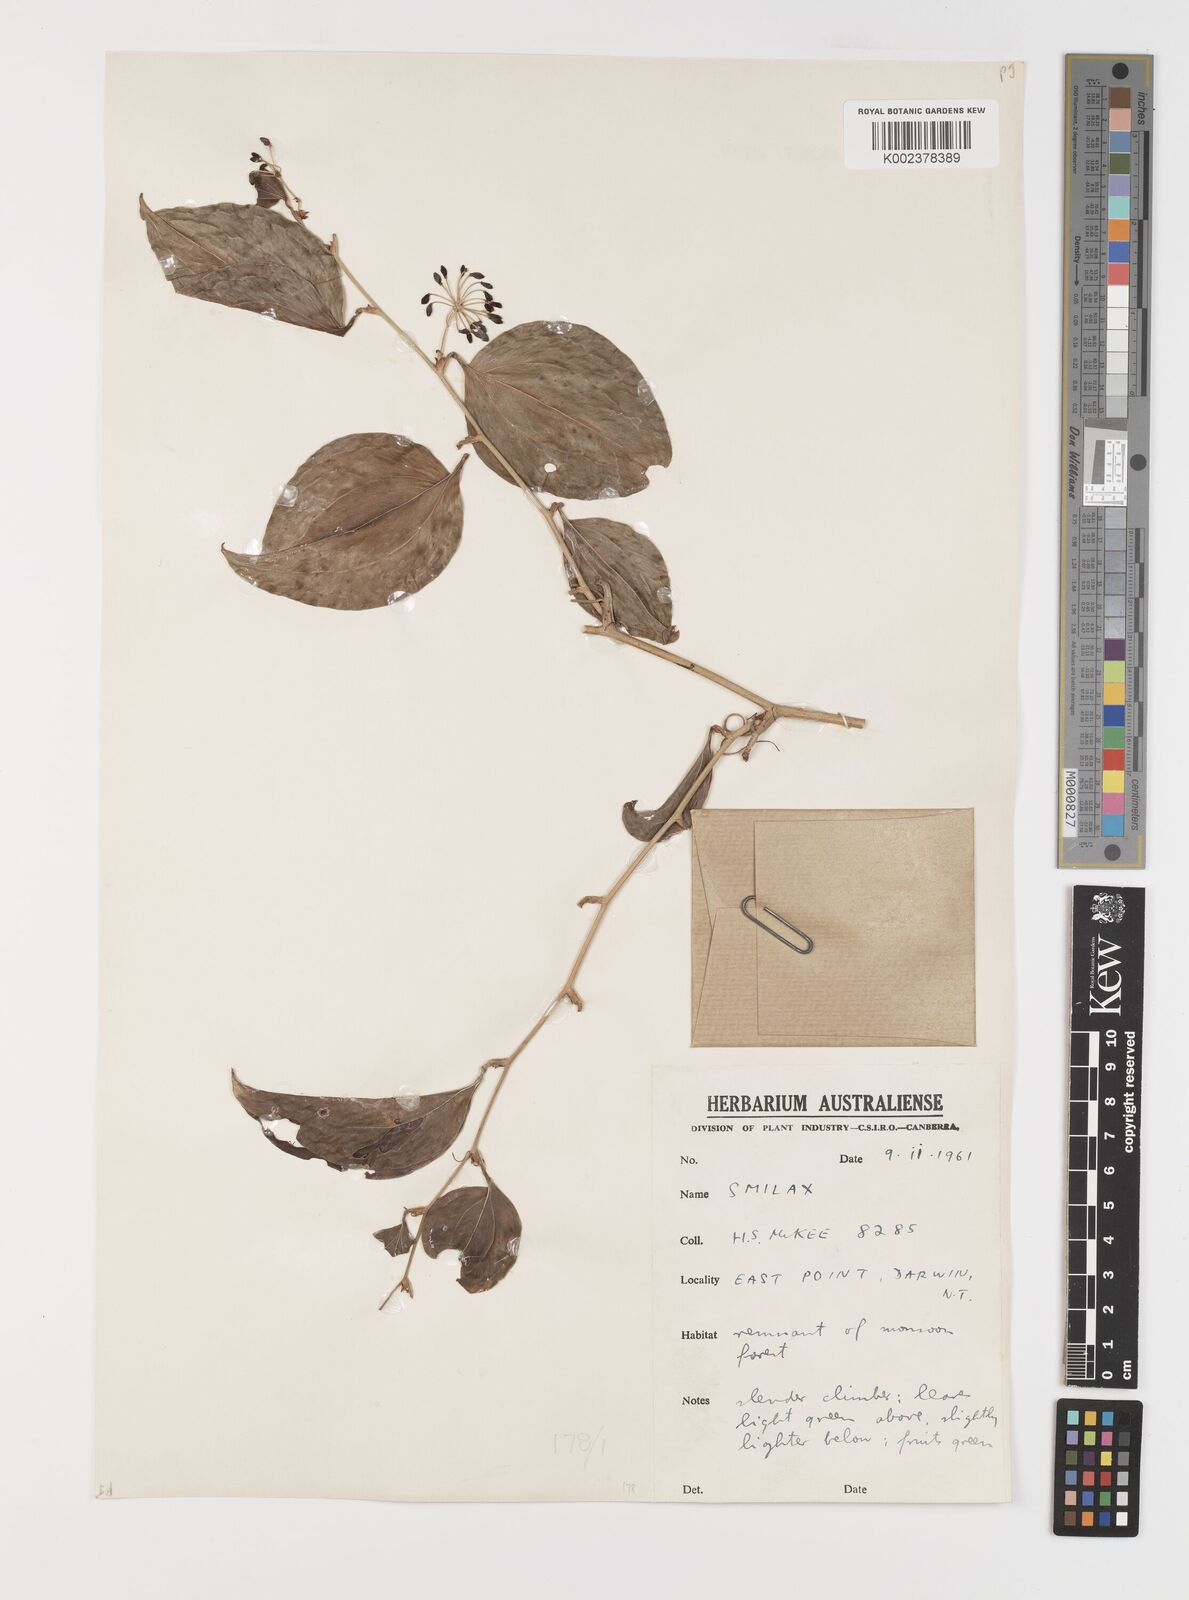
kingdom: Plantae
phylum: Tracheophyta
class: Liliopsida
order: Liliales
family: Smilacaceae
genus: Smilax
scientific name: Smilax
